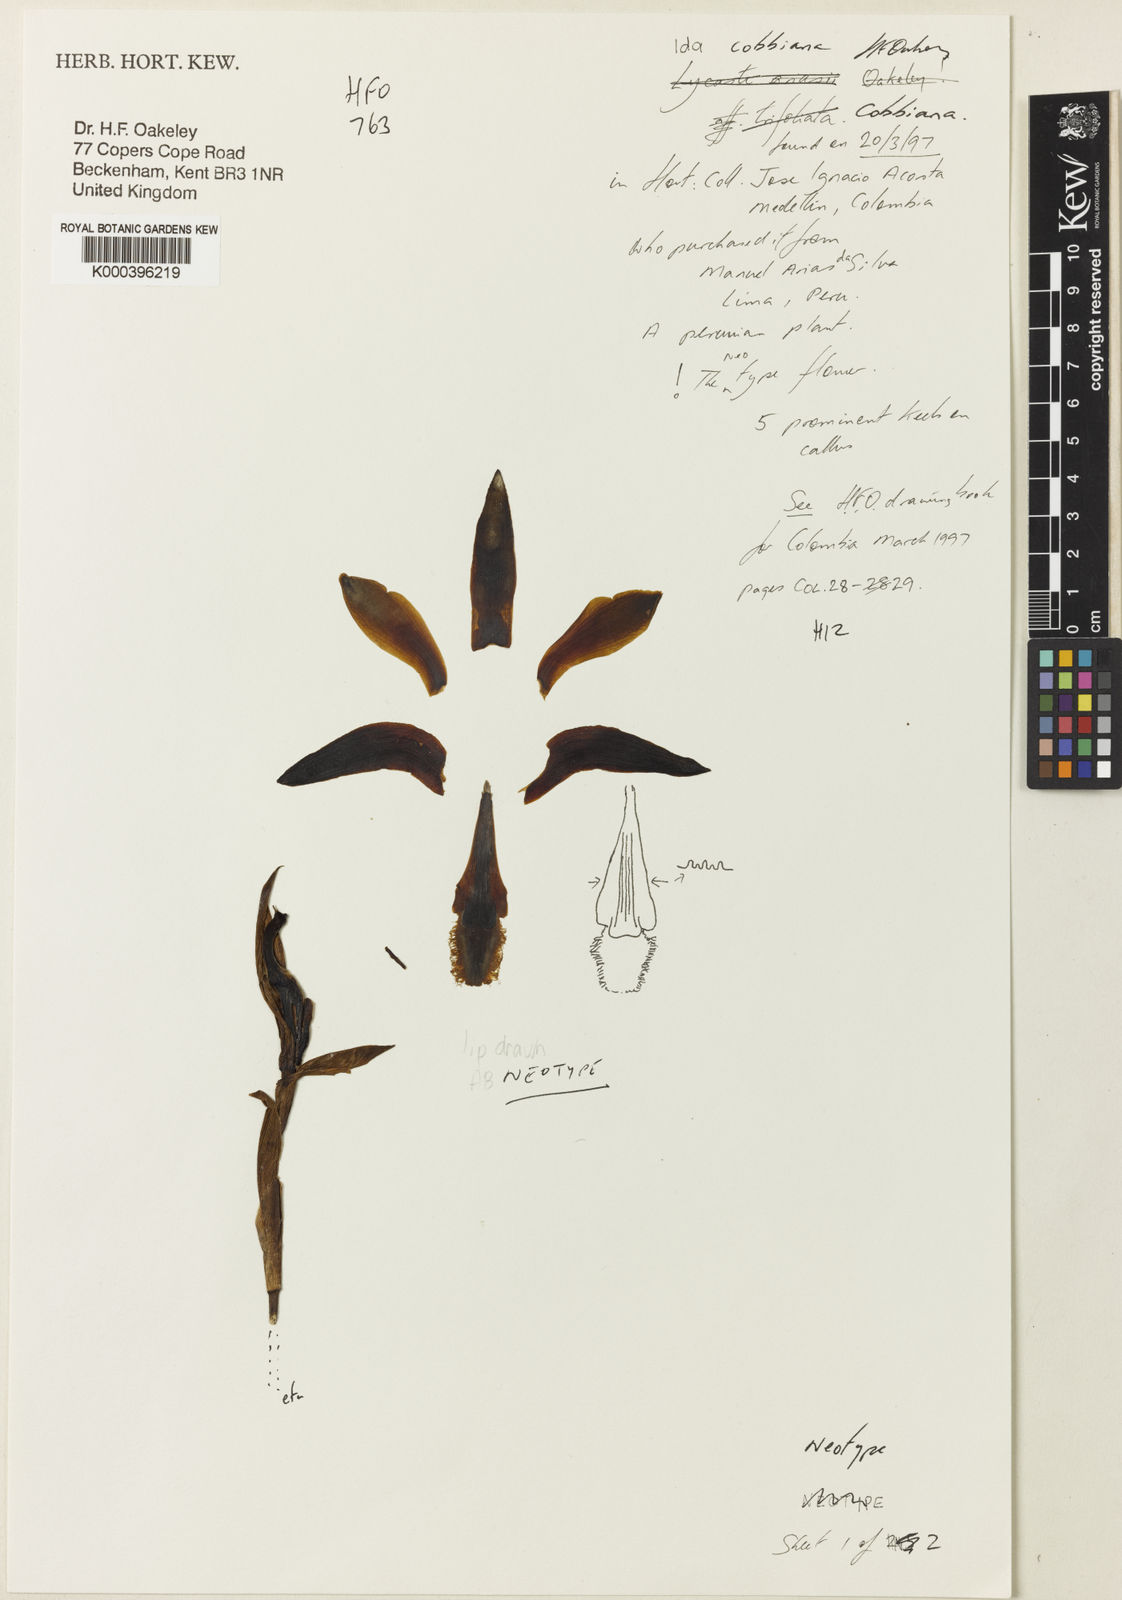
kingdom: Plantae
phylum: Tracheophyta
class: Liliopsida
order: Asparagales
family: Orchidaceae
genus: Ida
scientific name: Ida cobbiana
